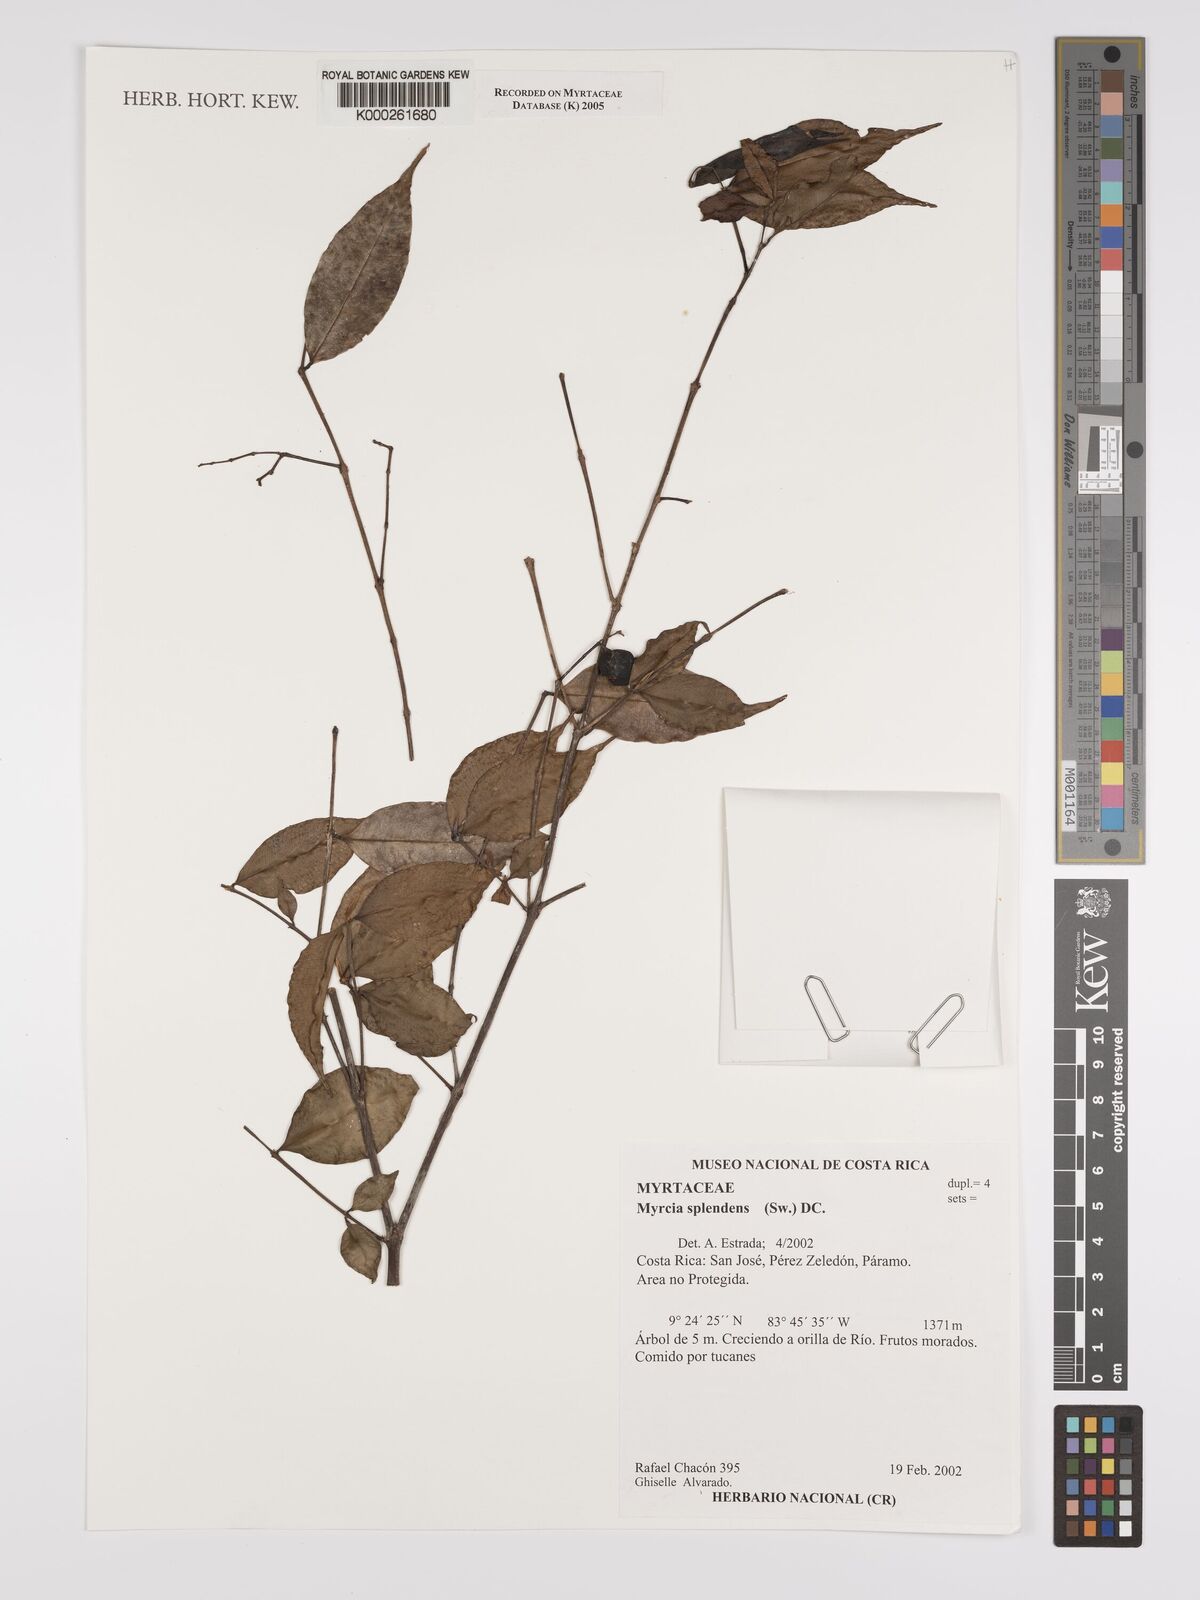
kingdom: Plantae
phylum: Tracheophyta
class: Magnoliopsida
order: Myrtales
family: Myrtaceae
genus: Myrcia
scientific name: Myrcia splendens
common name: Surinam cherry
